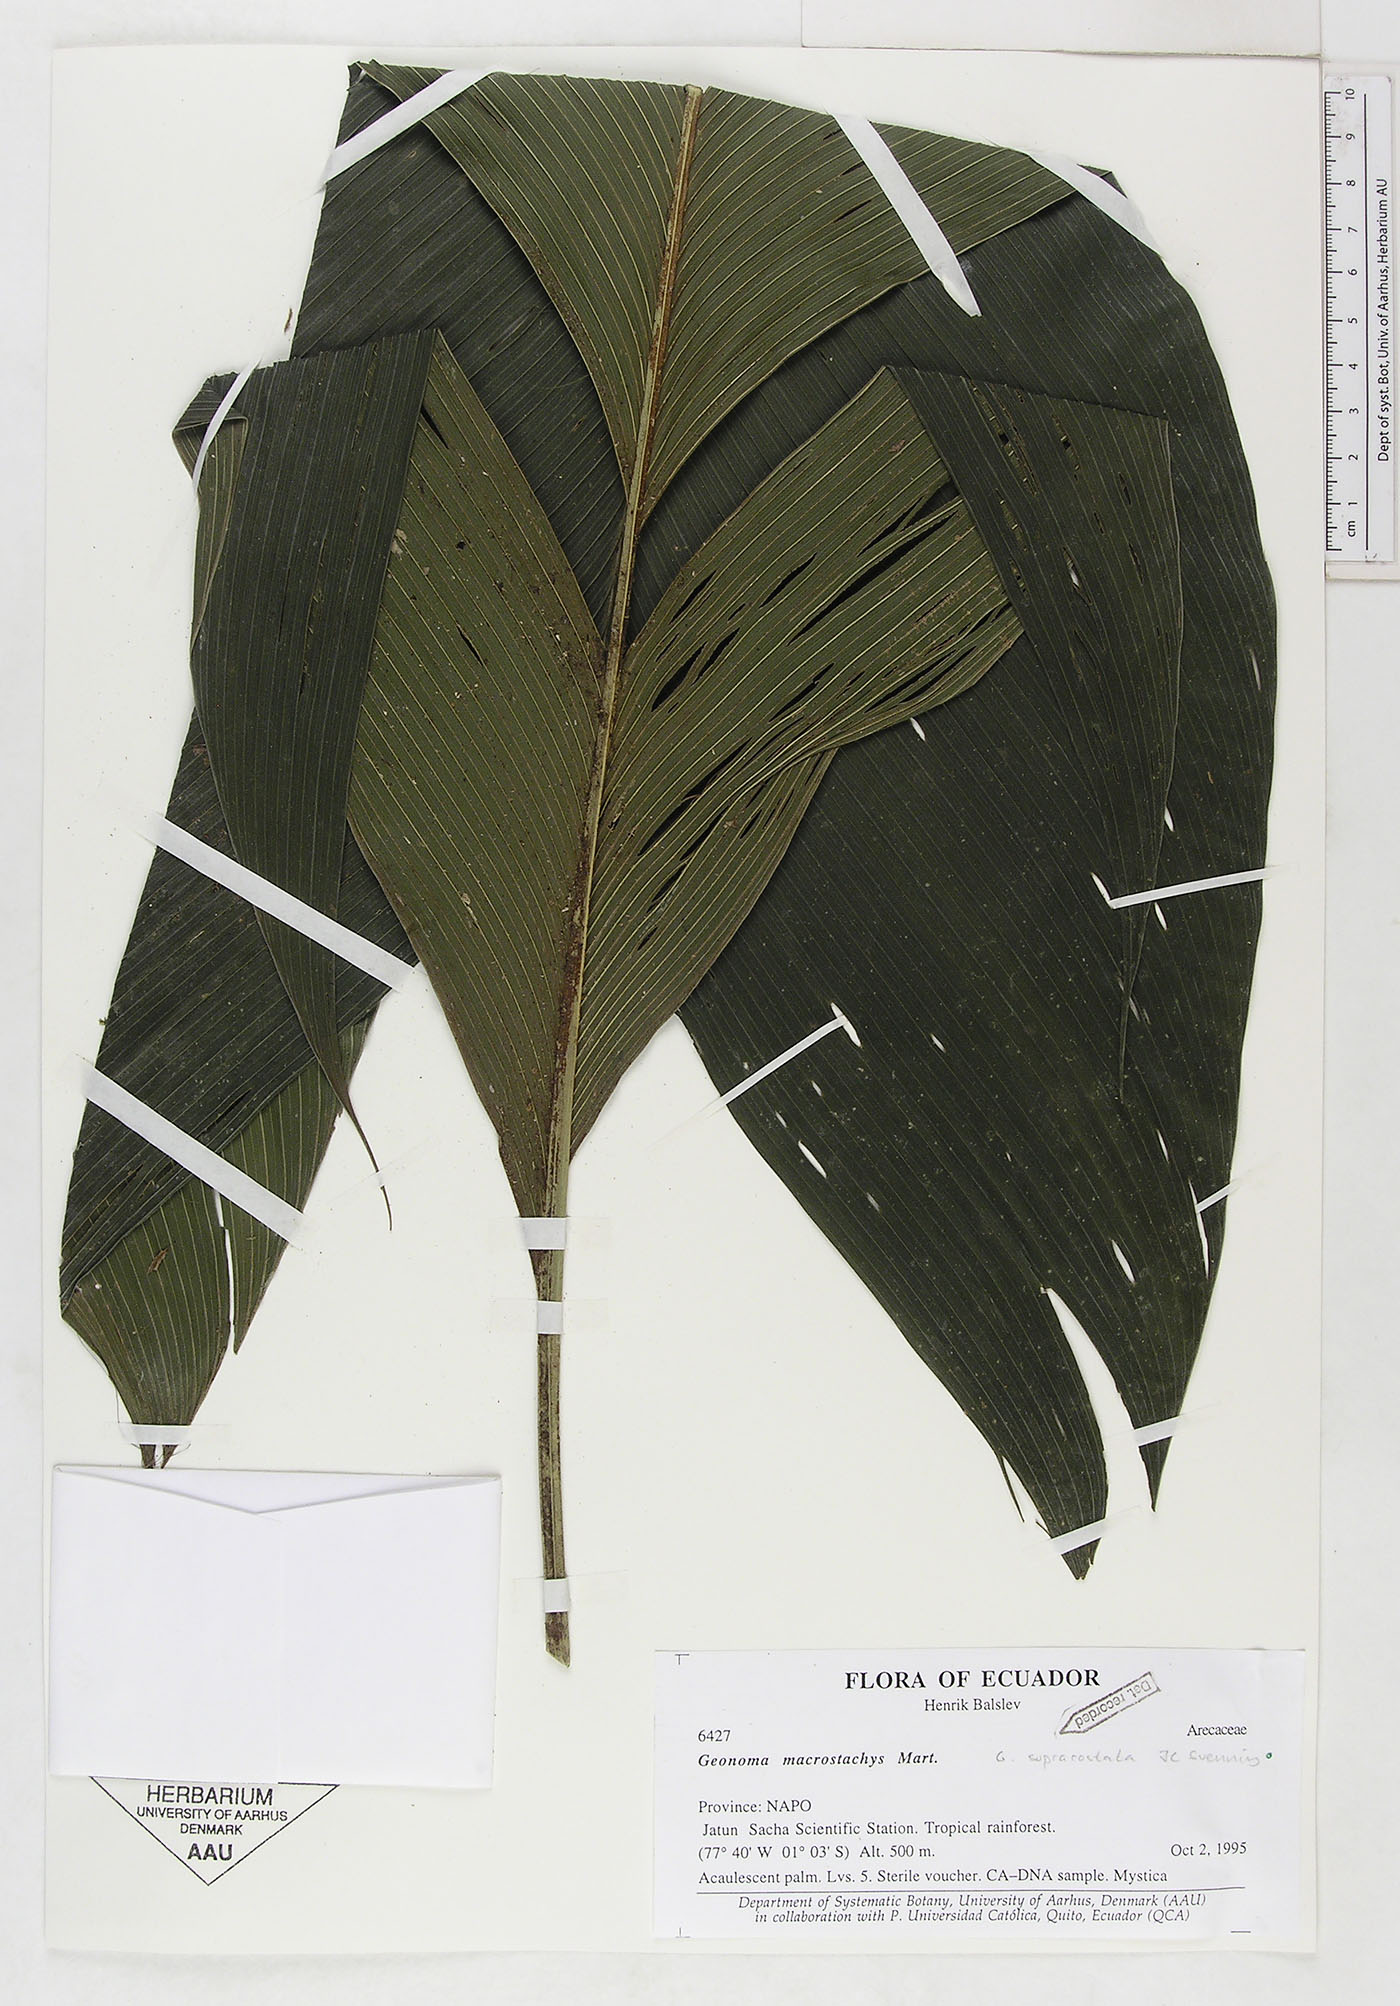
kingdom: Plantae
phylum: Tracheophyta
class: Liliopsida
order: Arecales
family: Arecaceae
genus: Geonoma
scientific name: Geonoma macrostachys
